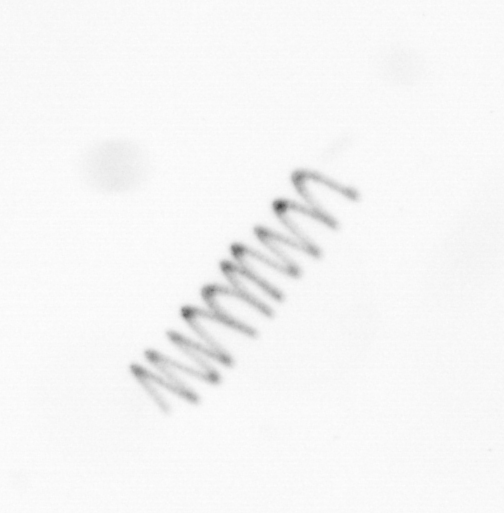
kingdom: Chromista
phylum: Ochrophyta
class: Bacillariophyceae
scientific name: Bacillariophyceae
